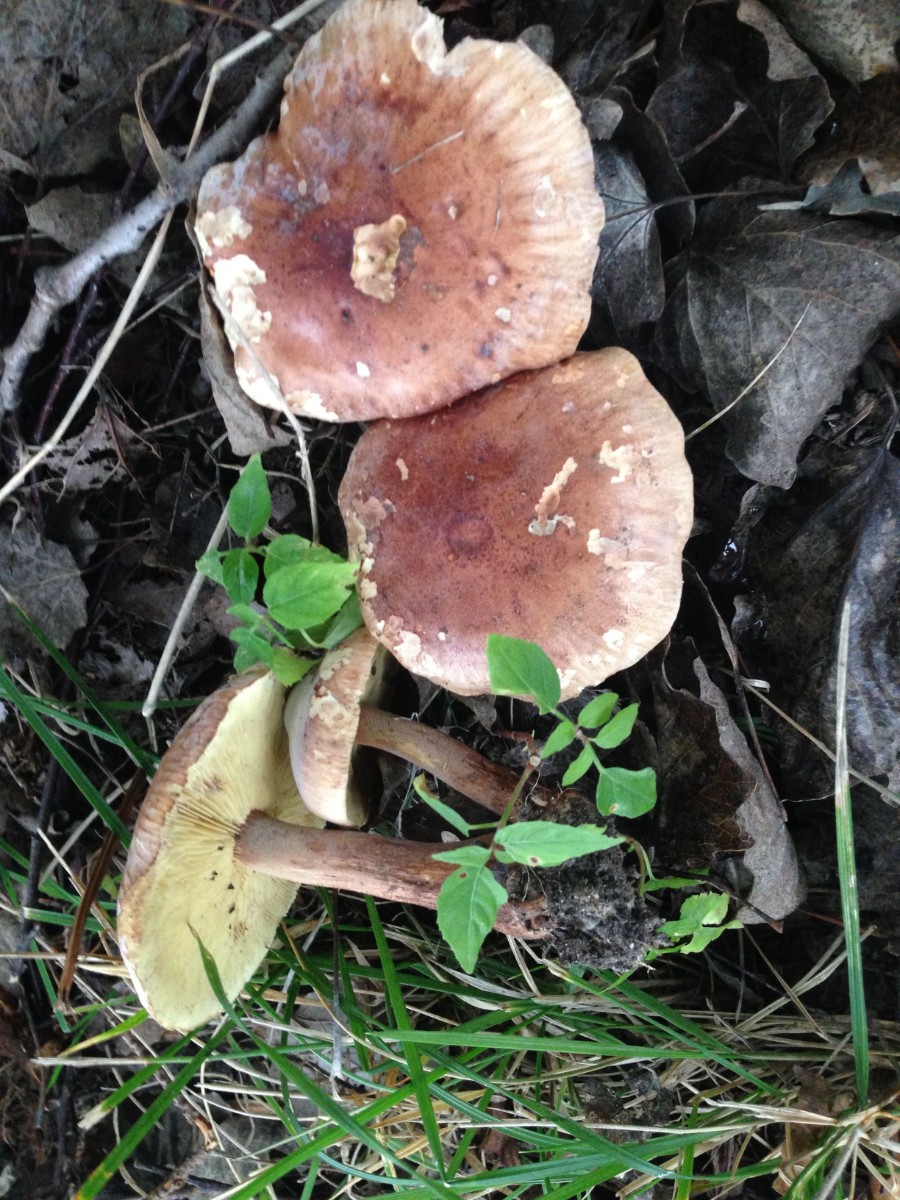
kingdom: Fungi
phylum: Basidiomycota
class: Agaricomycetes
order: Agaricales
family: Tricholomataceae
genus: Tricholoma
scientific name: Tricholoma fulvum
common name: birke-ridderhat
